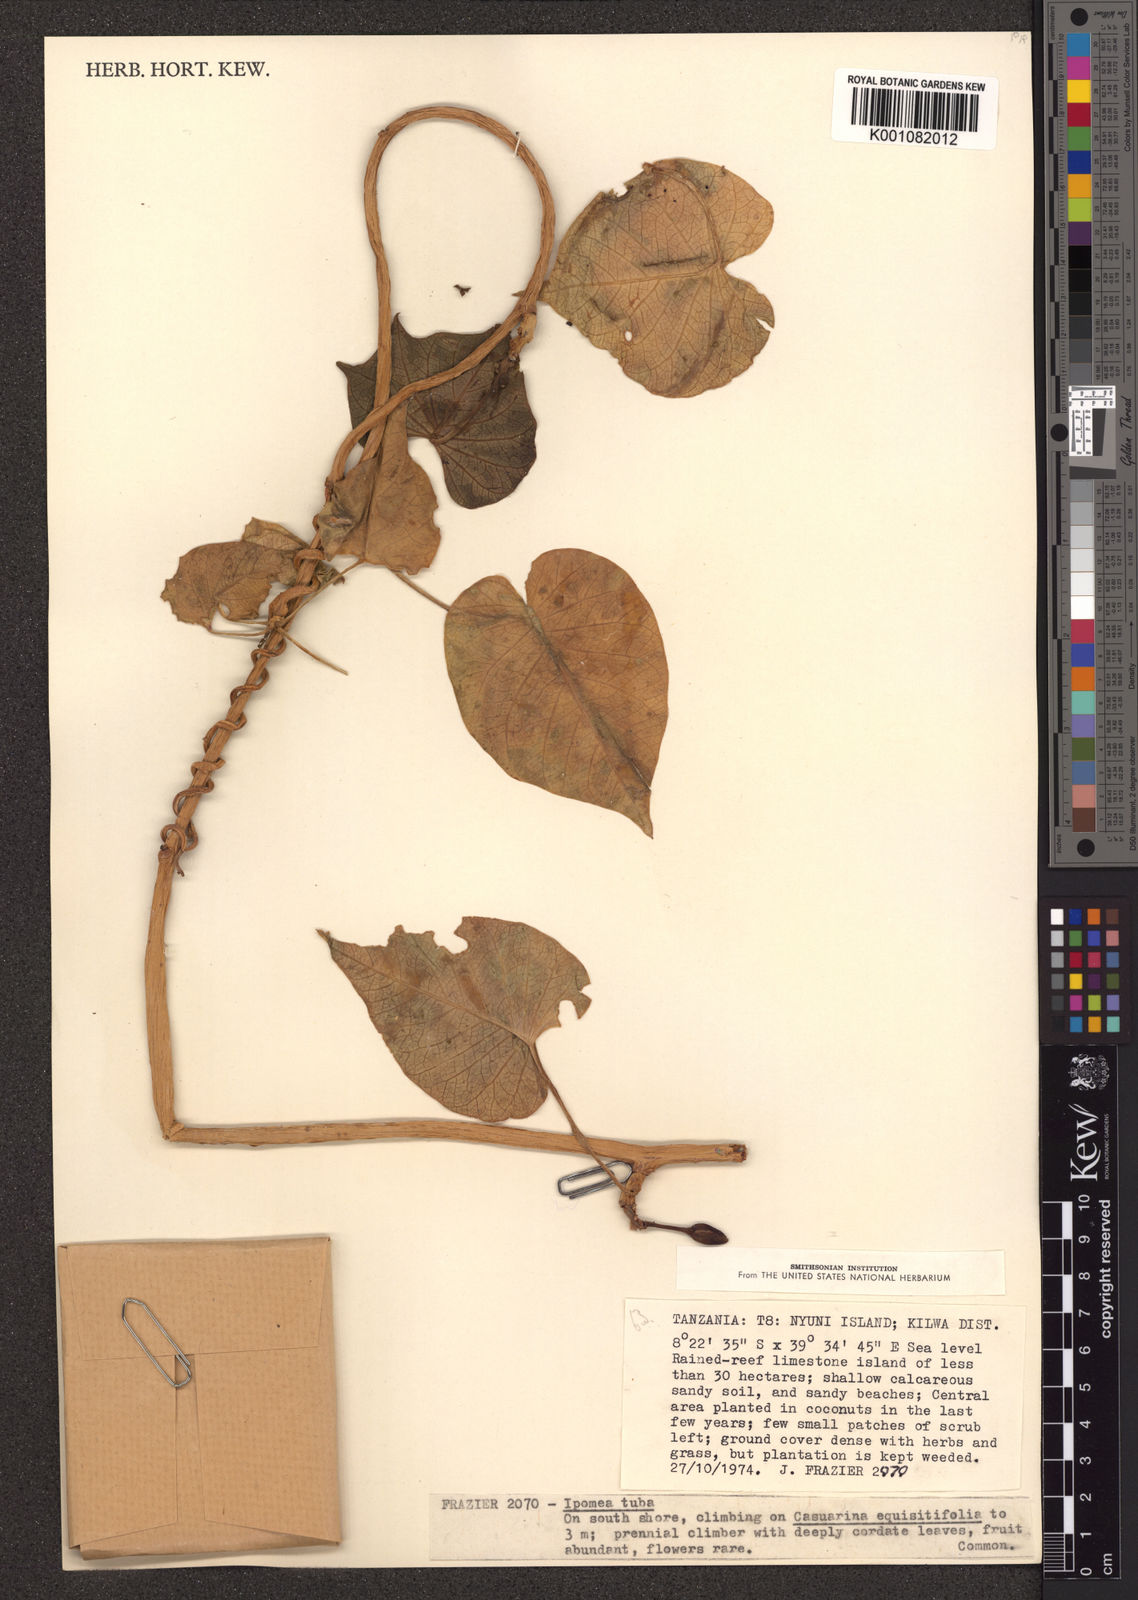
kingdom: Plantae
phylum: Tracheophyta
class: Magnoliopsida
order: Solanales
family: Convolvulaceae
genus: Ipomoea
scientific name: Ipomoea violacea
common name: Beach moonflower
